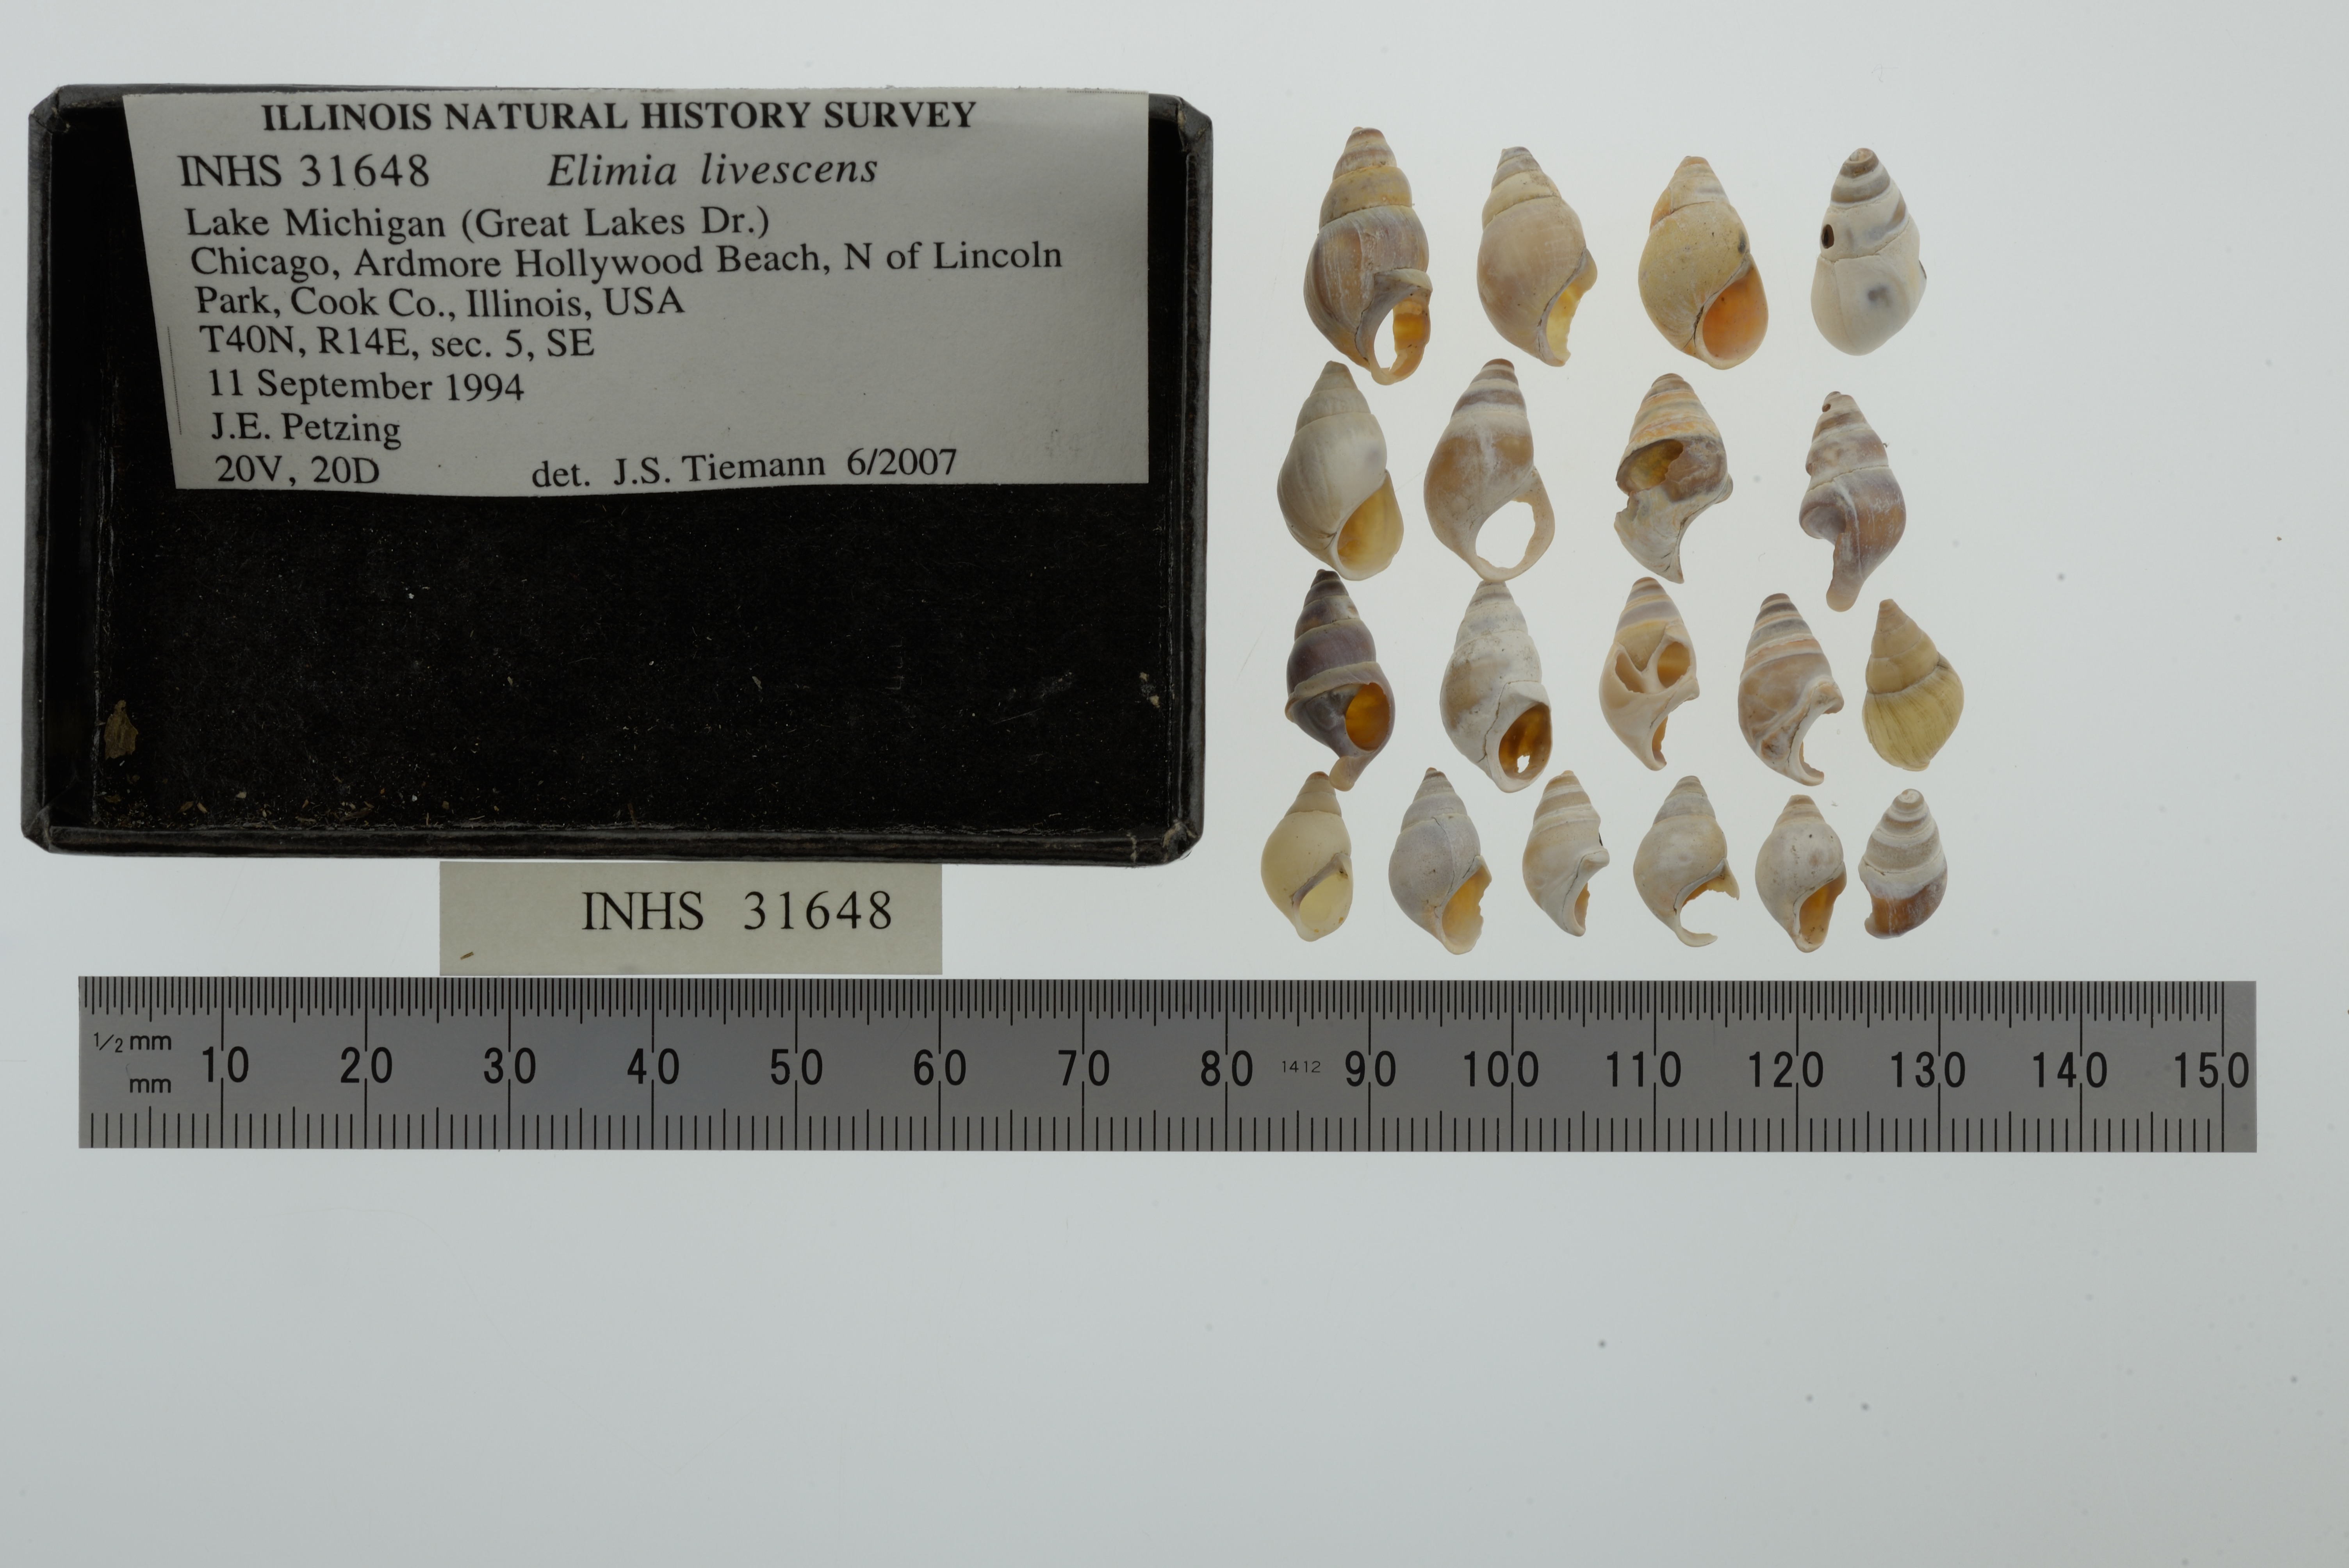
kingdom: Animalia
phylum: Mollusca
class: Gastropoda
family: Pleuroceridae
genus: Elimia
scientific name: Elimia livescens
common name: Liver elimia
